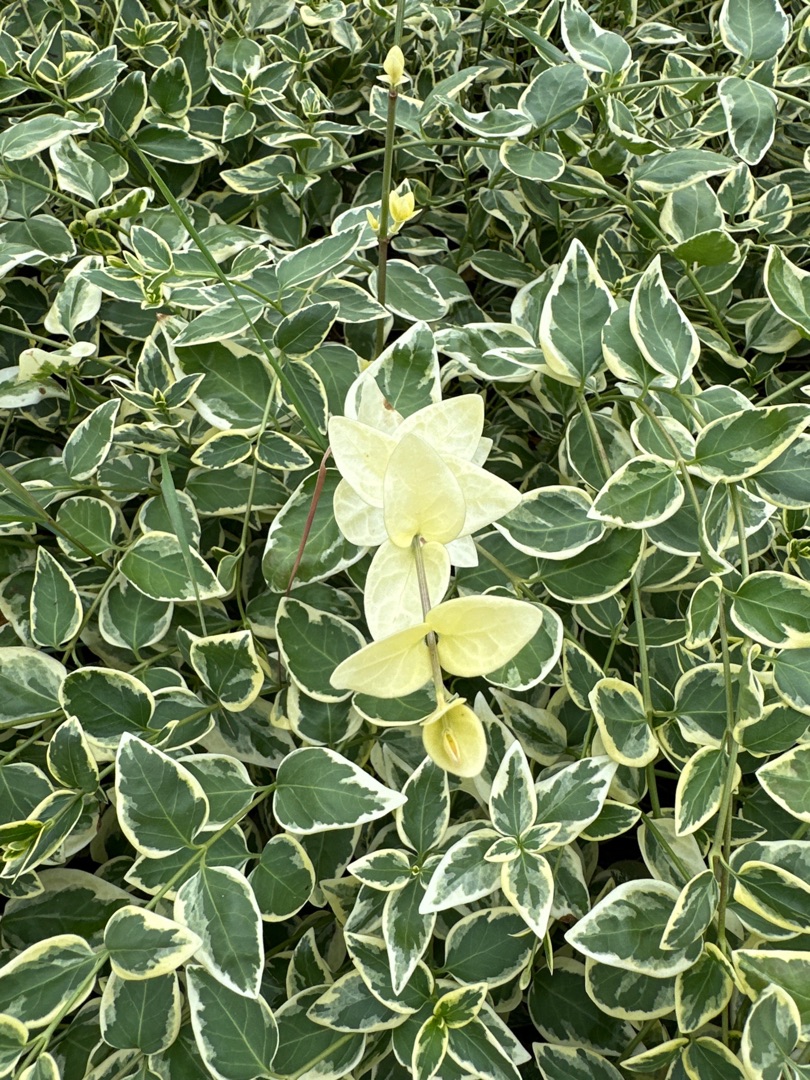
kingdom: Plantae
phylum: Tracheophyta
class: Magnoliopsida
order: Gentianales
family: Apocynaceae
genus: Vinca
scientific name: Vinca major
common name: Stor singrøn
